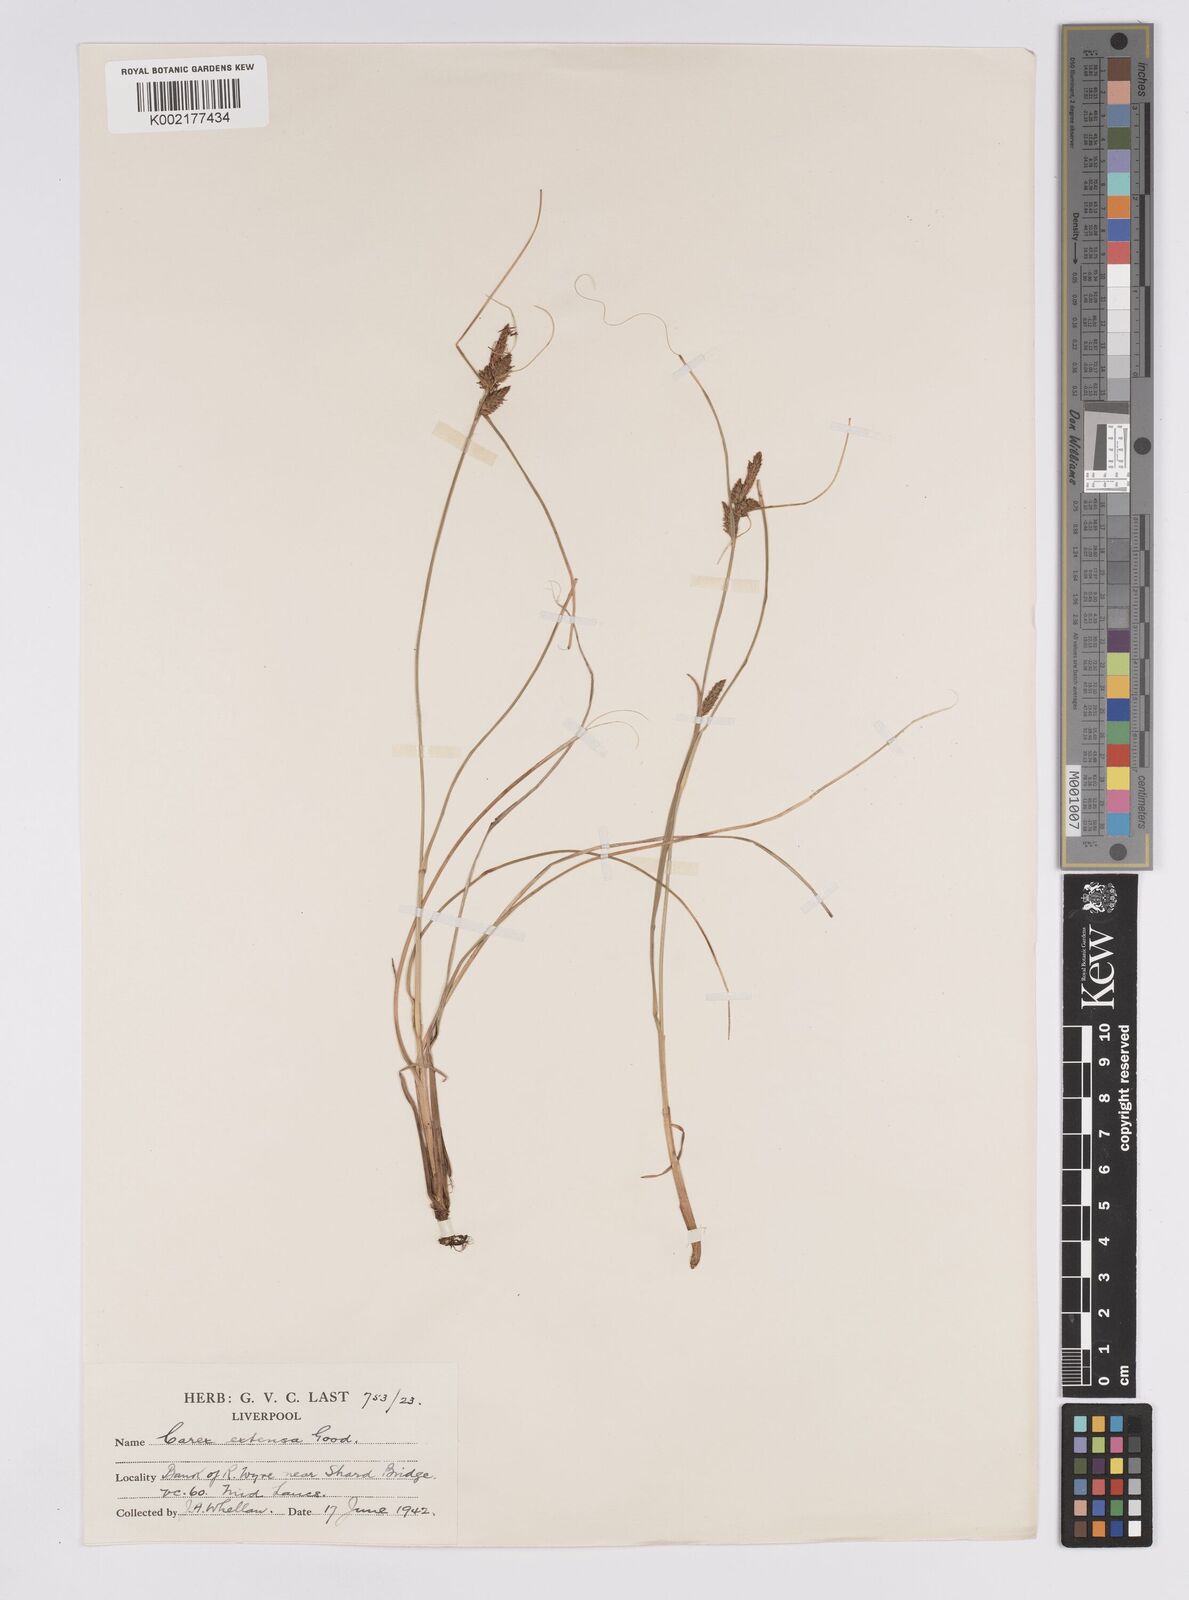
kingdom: Plantae
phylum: Tracheophyta
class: Liliopsida
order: Poales
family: Cyperaceae
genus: Carex
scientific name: Carex extensa
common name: Long-bracted sedge
